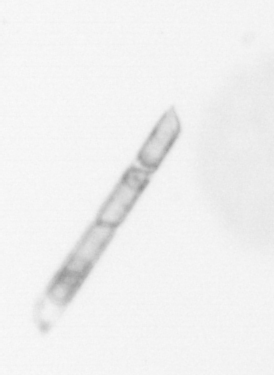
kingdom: Chromista
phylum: Ochrophyta
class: Bacillariophyceae
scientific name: Bacillariophyceae
